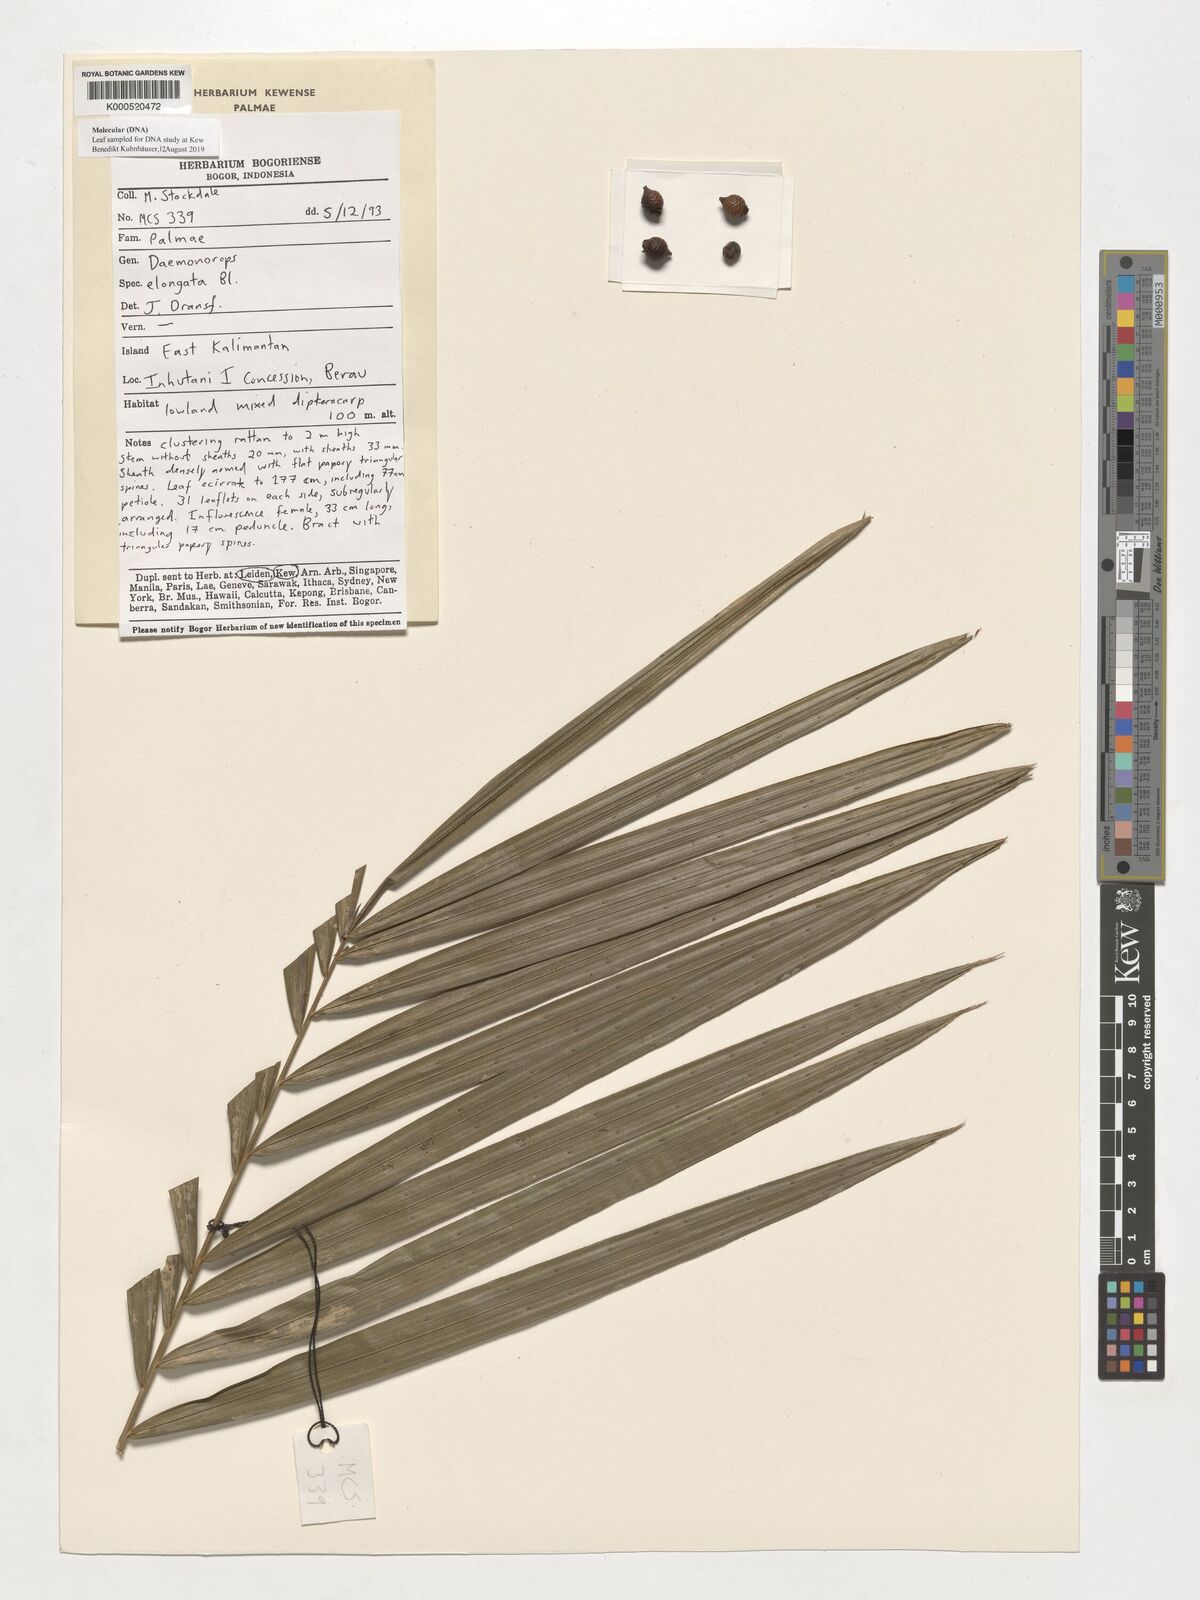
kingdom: Plantae
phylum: Tracheophyta
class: Liliopsida
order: Arecales
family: Arecaceae
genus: Calamus
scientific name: Calamus oblongus
